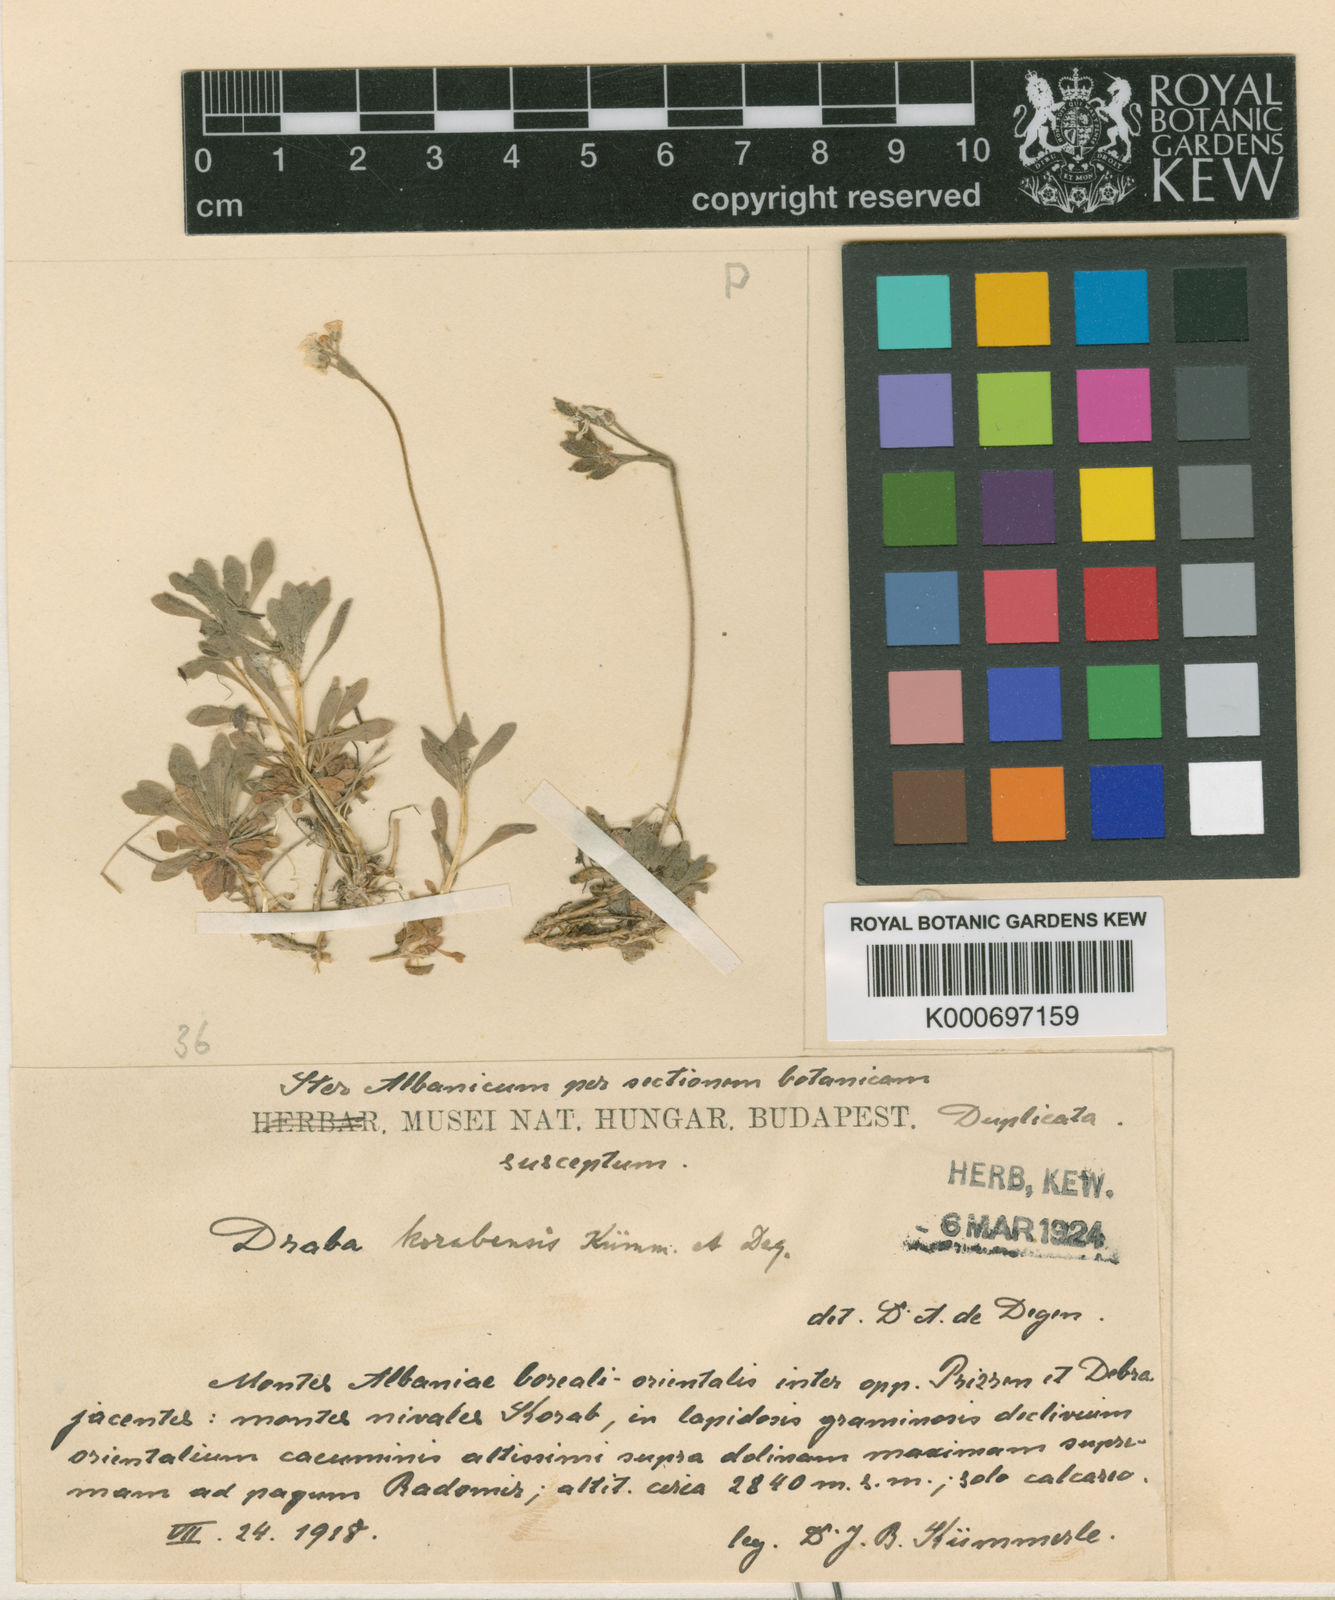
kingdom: Plantae
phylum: Tracheophyta
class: Magnoliopsida
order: Brassicales
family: Brassicaceae
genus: Draba
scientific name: Draba
